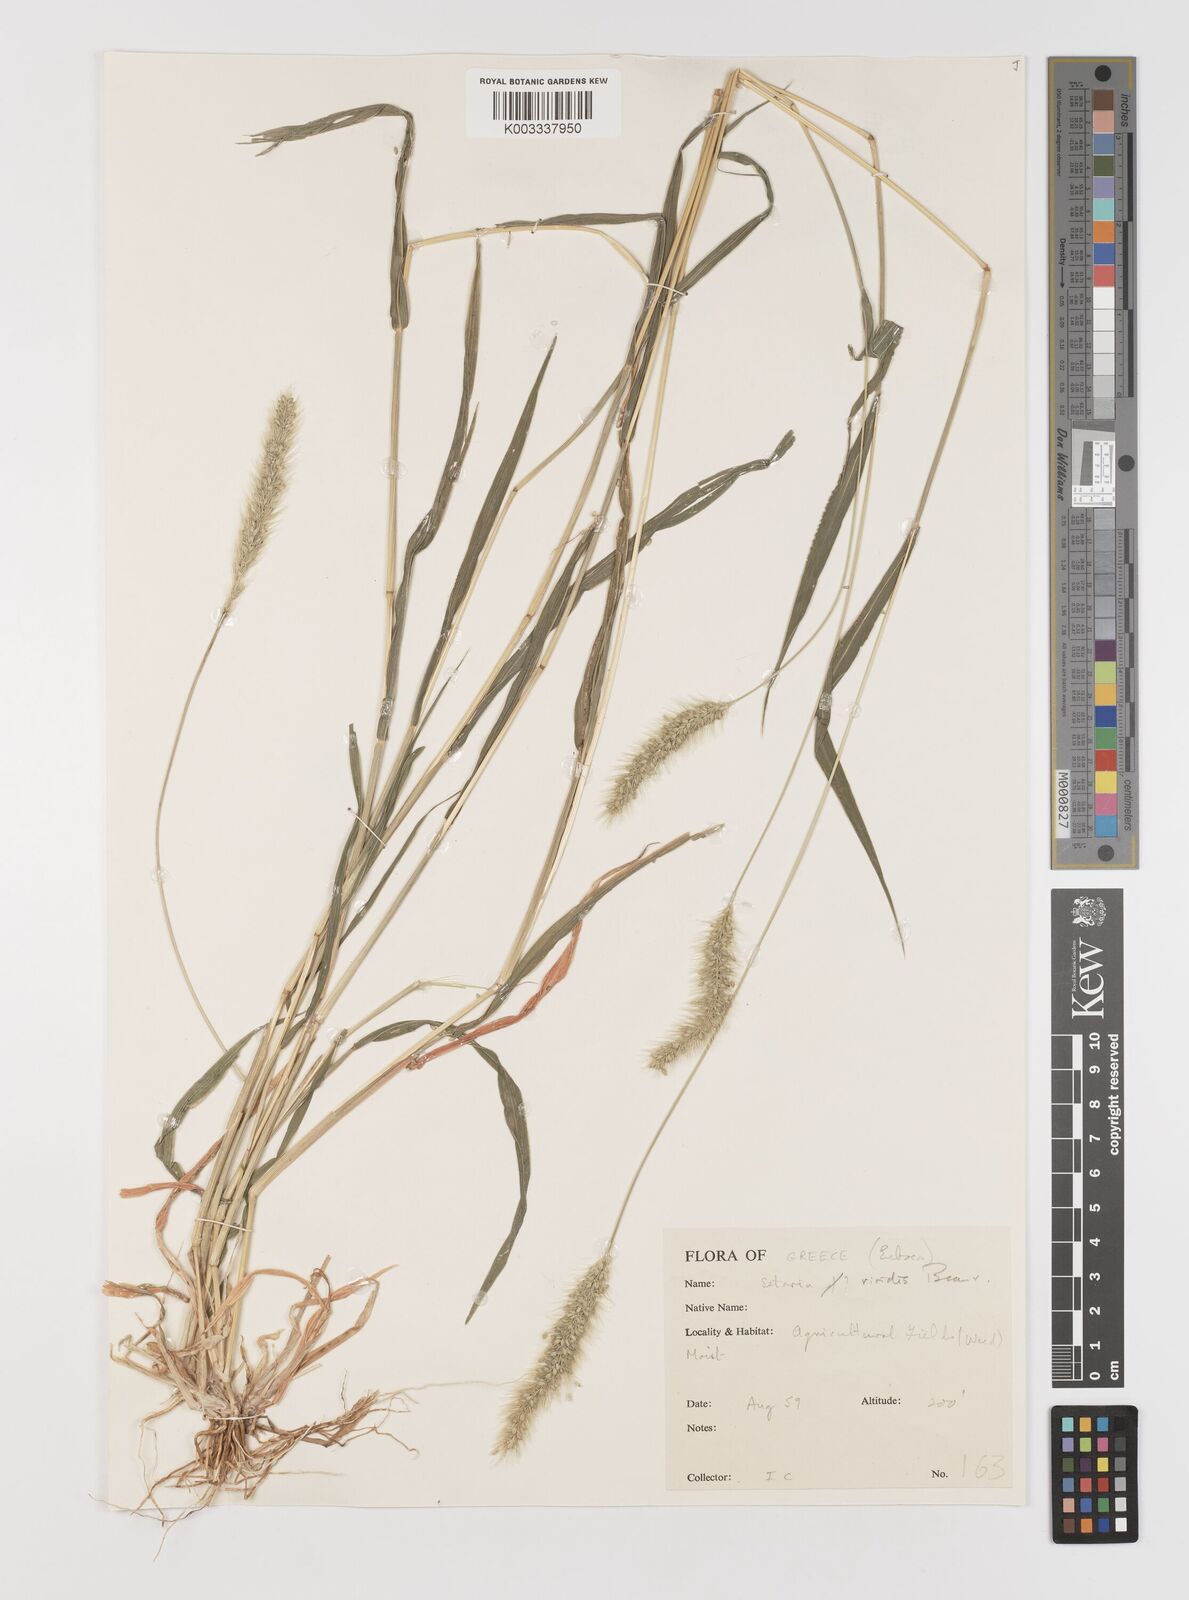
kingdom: Plantae
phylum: Tracheophyta
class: Liliopsida
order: Poales
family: Poaceae
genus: Setaria
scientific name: Setaria viridis
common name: Green bristlegrass
